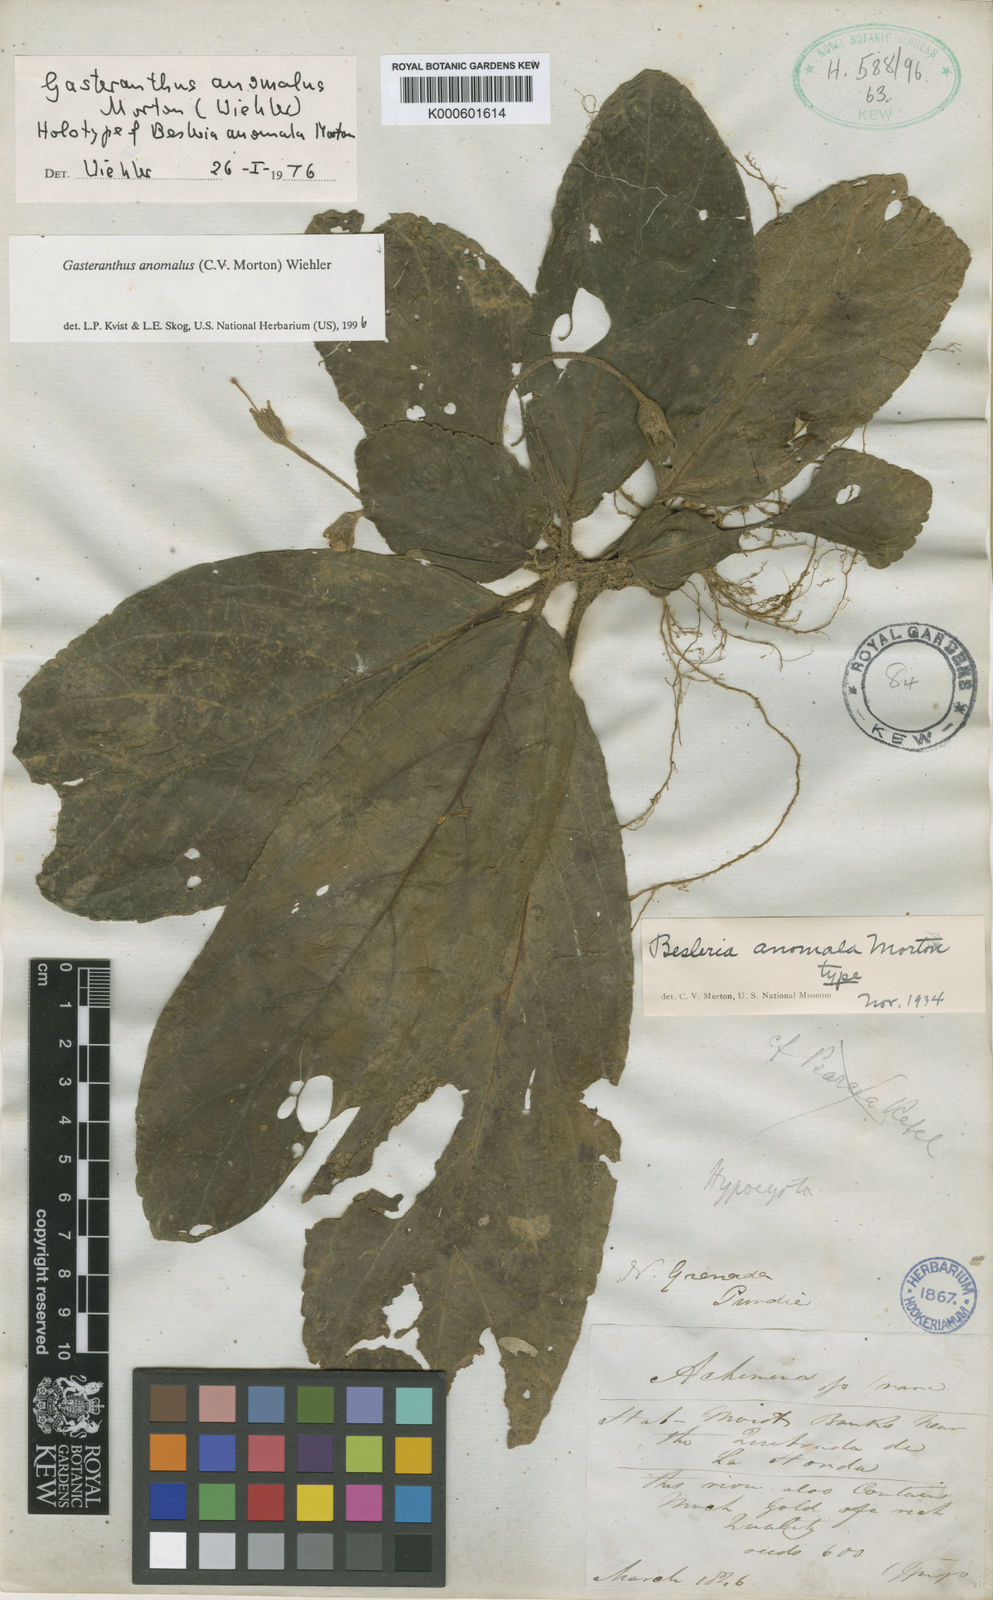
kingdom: Plantae
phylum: Tracheophyta
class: Magnoliopsida
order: Lamiales
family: Gesneriaceae
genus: Gasteranthus
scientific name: Gasteranthus anomalus
